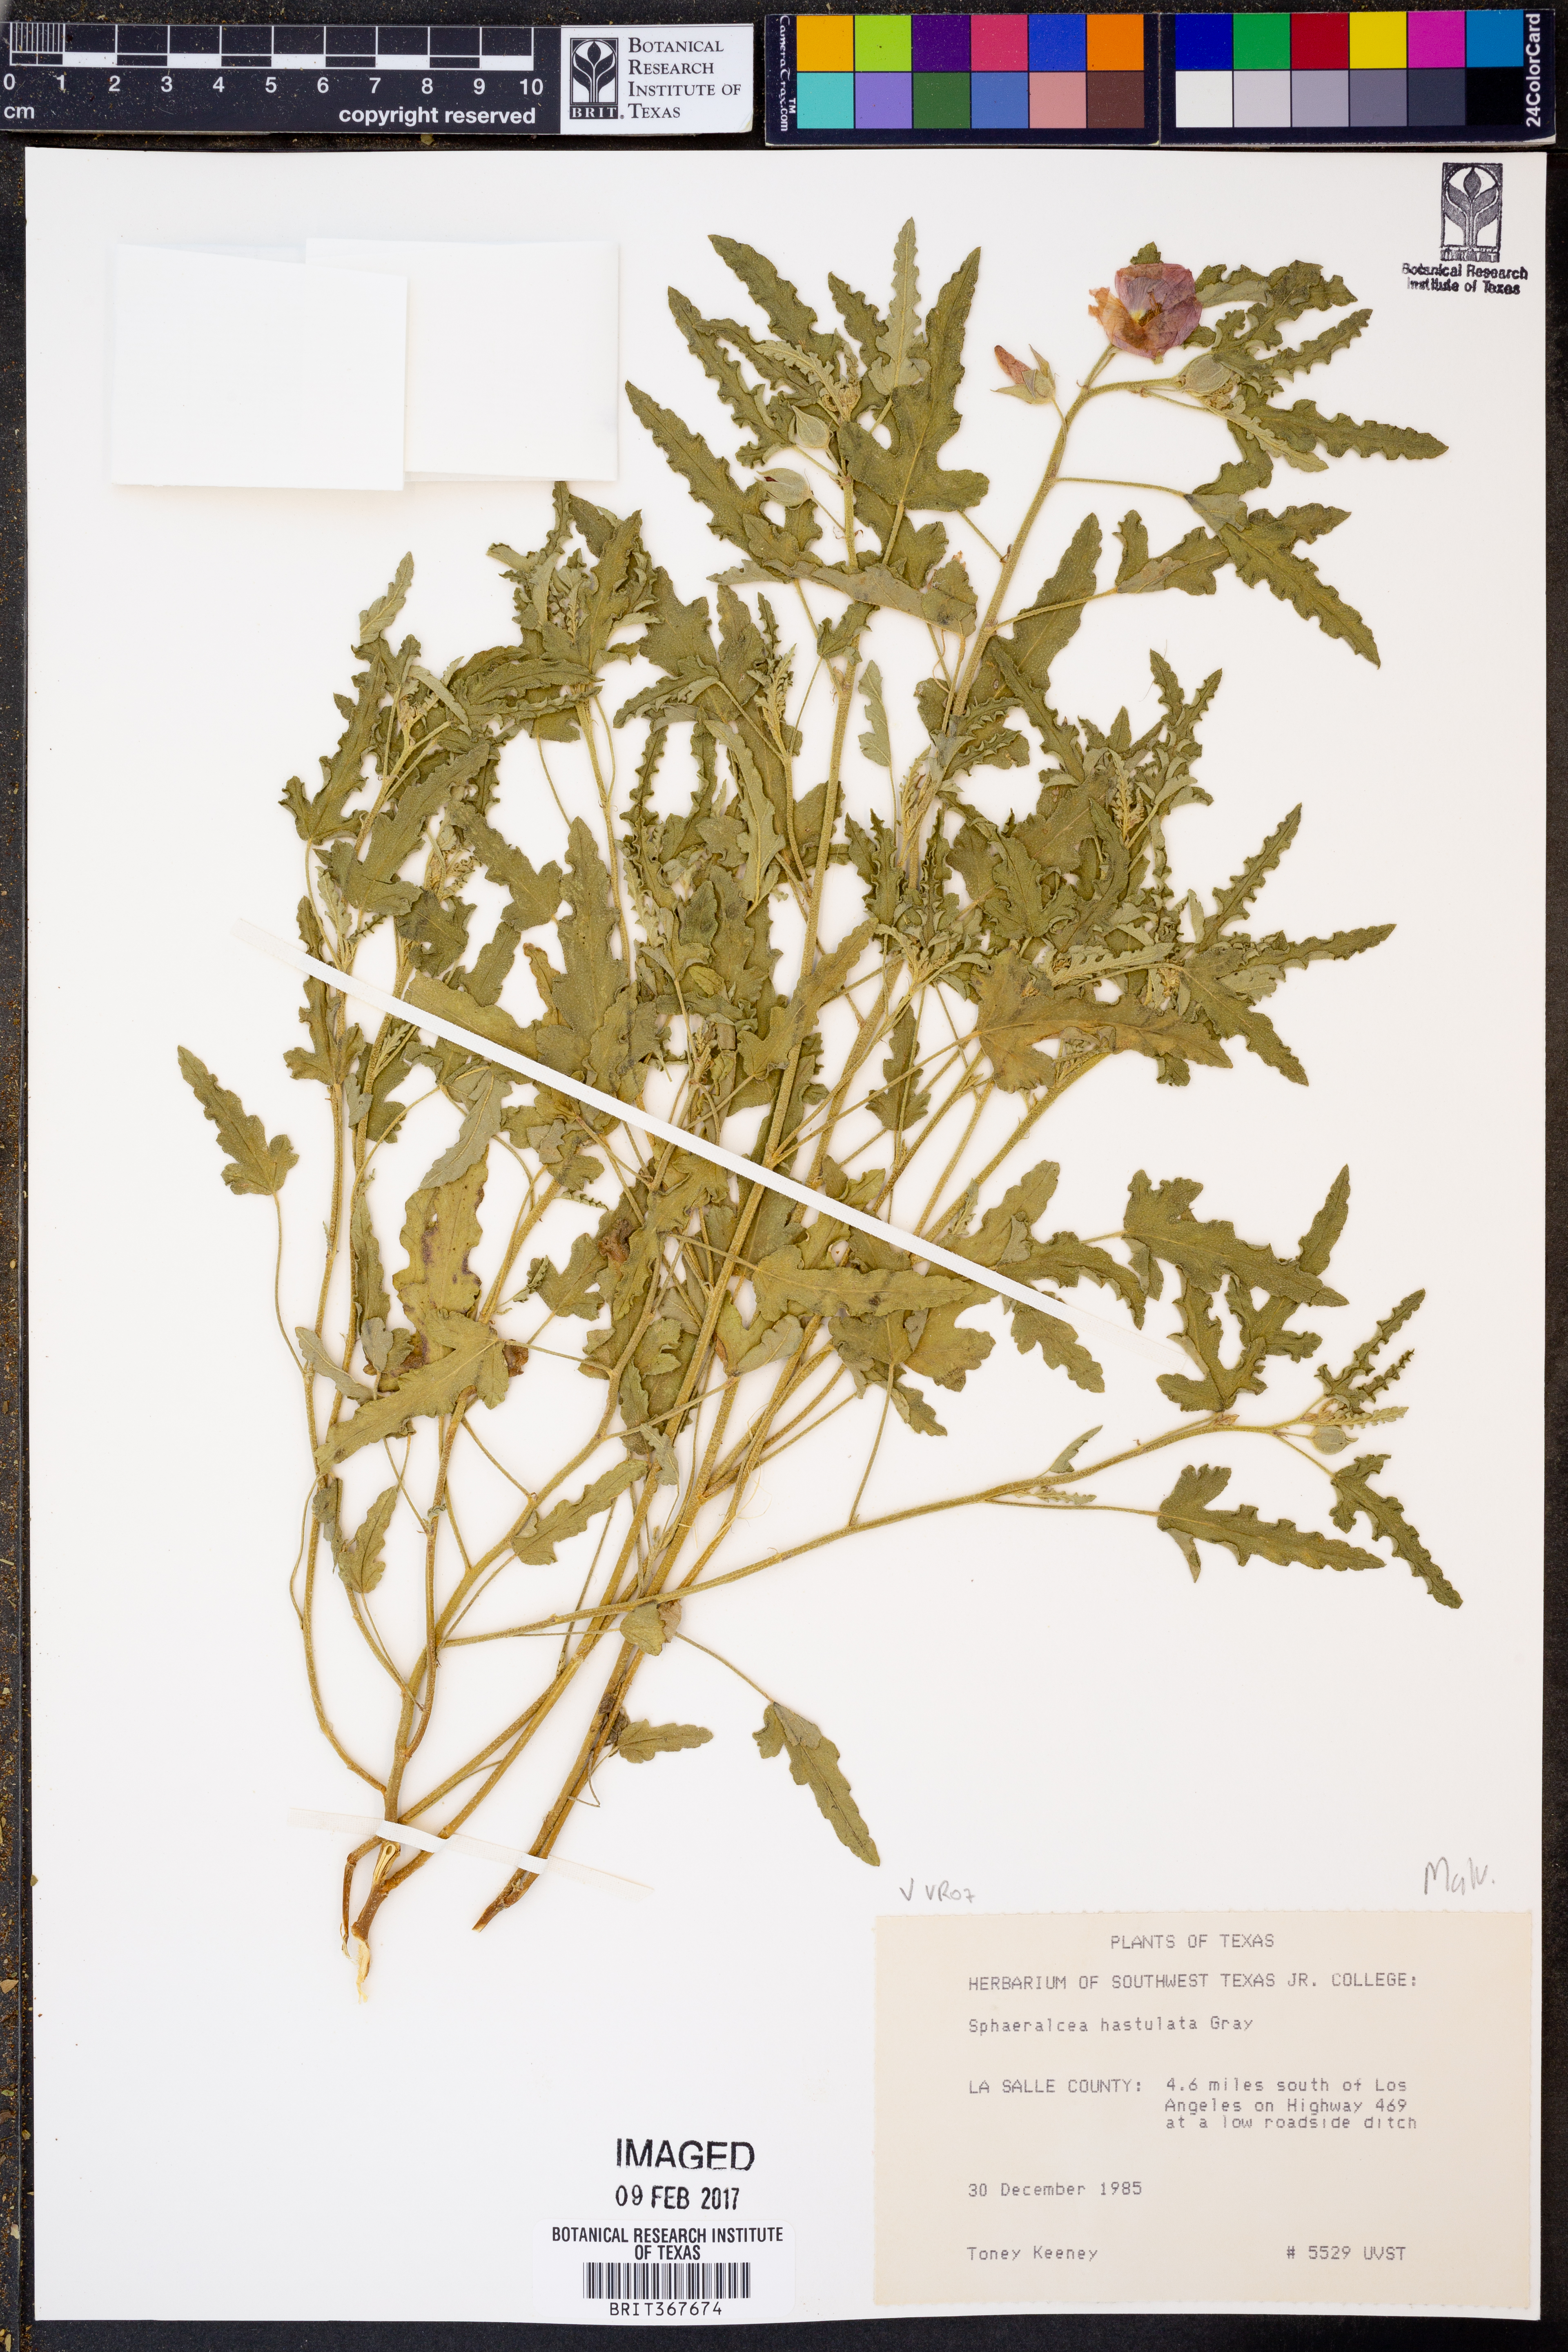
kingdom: Plantae
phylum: Tracheophyta
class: Magnoliopsida
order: Malvales
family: Malvaceae
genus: Sphaeralcea
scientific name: Sphaeralcea hastulata
